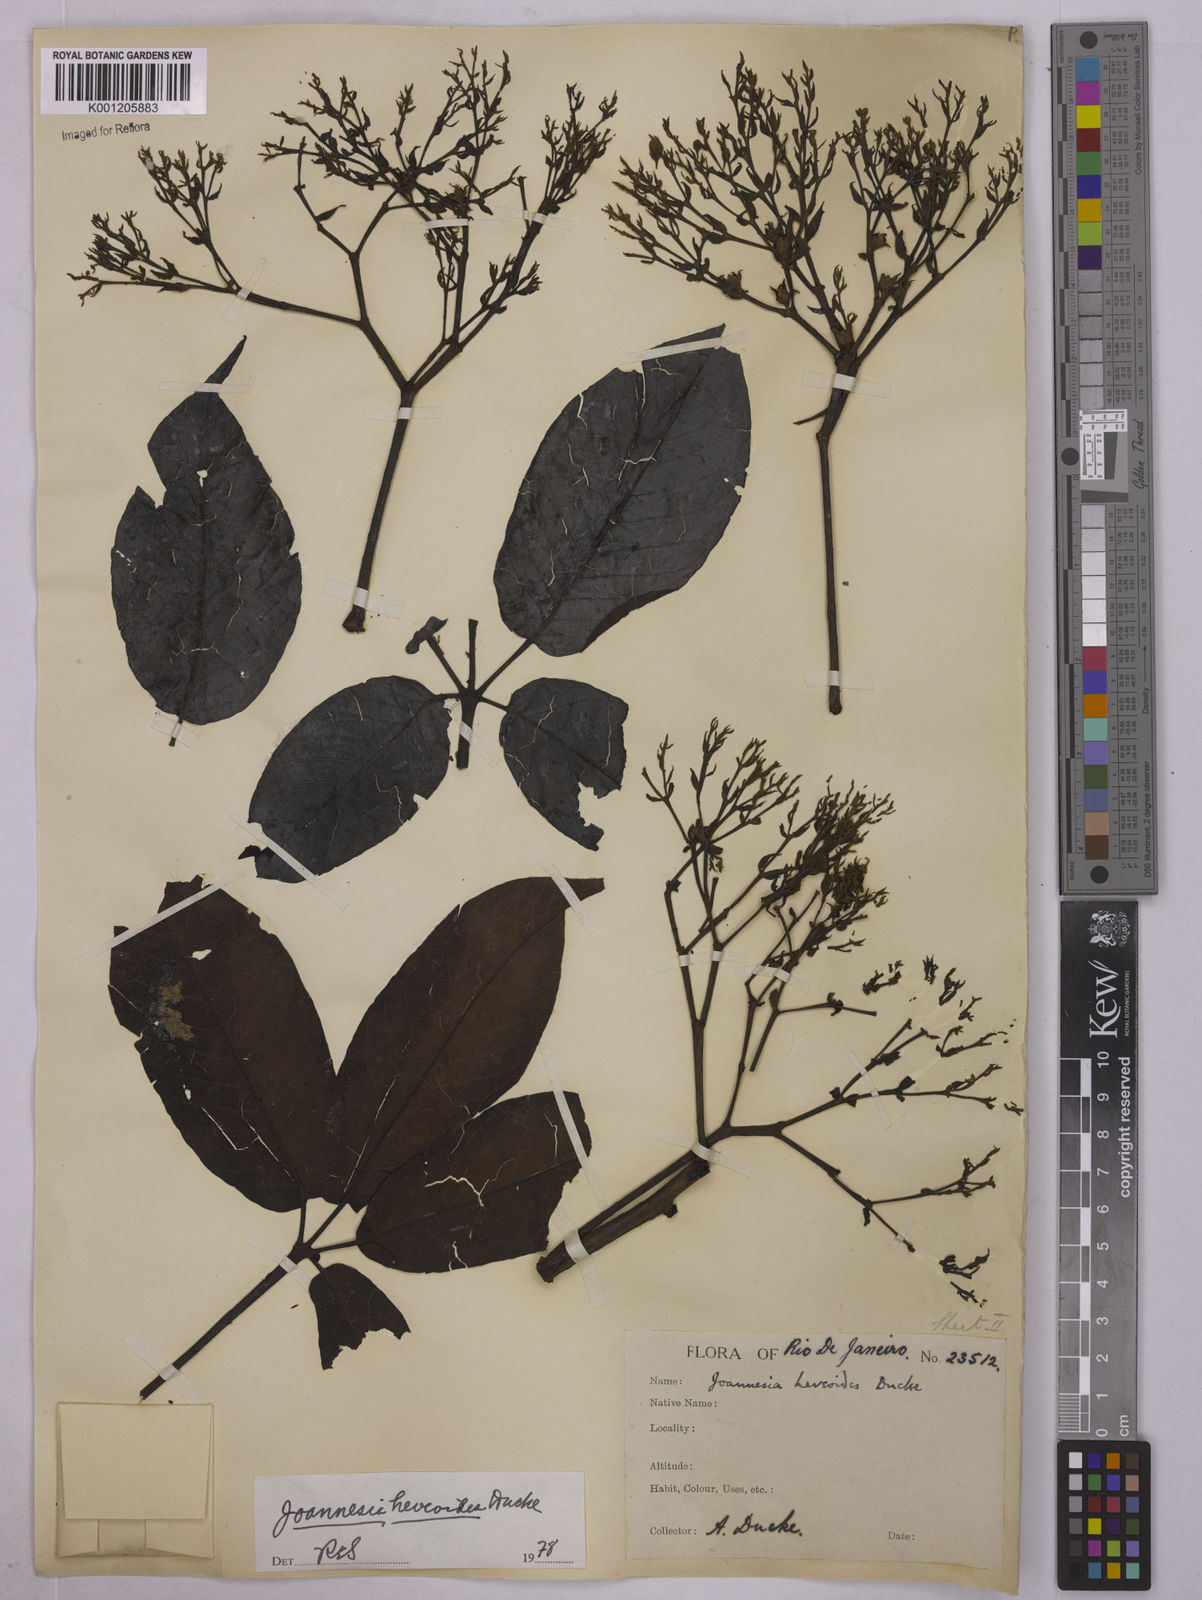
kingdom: Plantae
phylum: Tracheophyta
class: Magnoliopsida
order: Malpighiales
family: Euphorbiaceae
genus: Joannesia
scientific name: Joannesia heveoides
